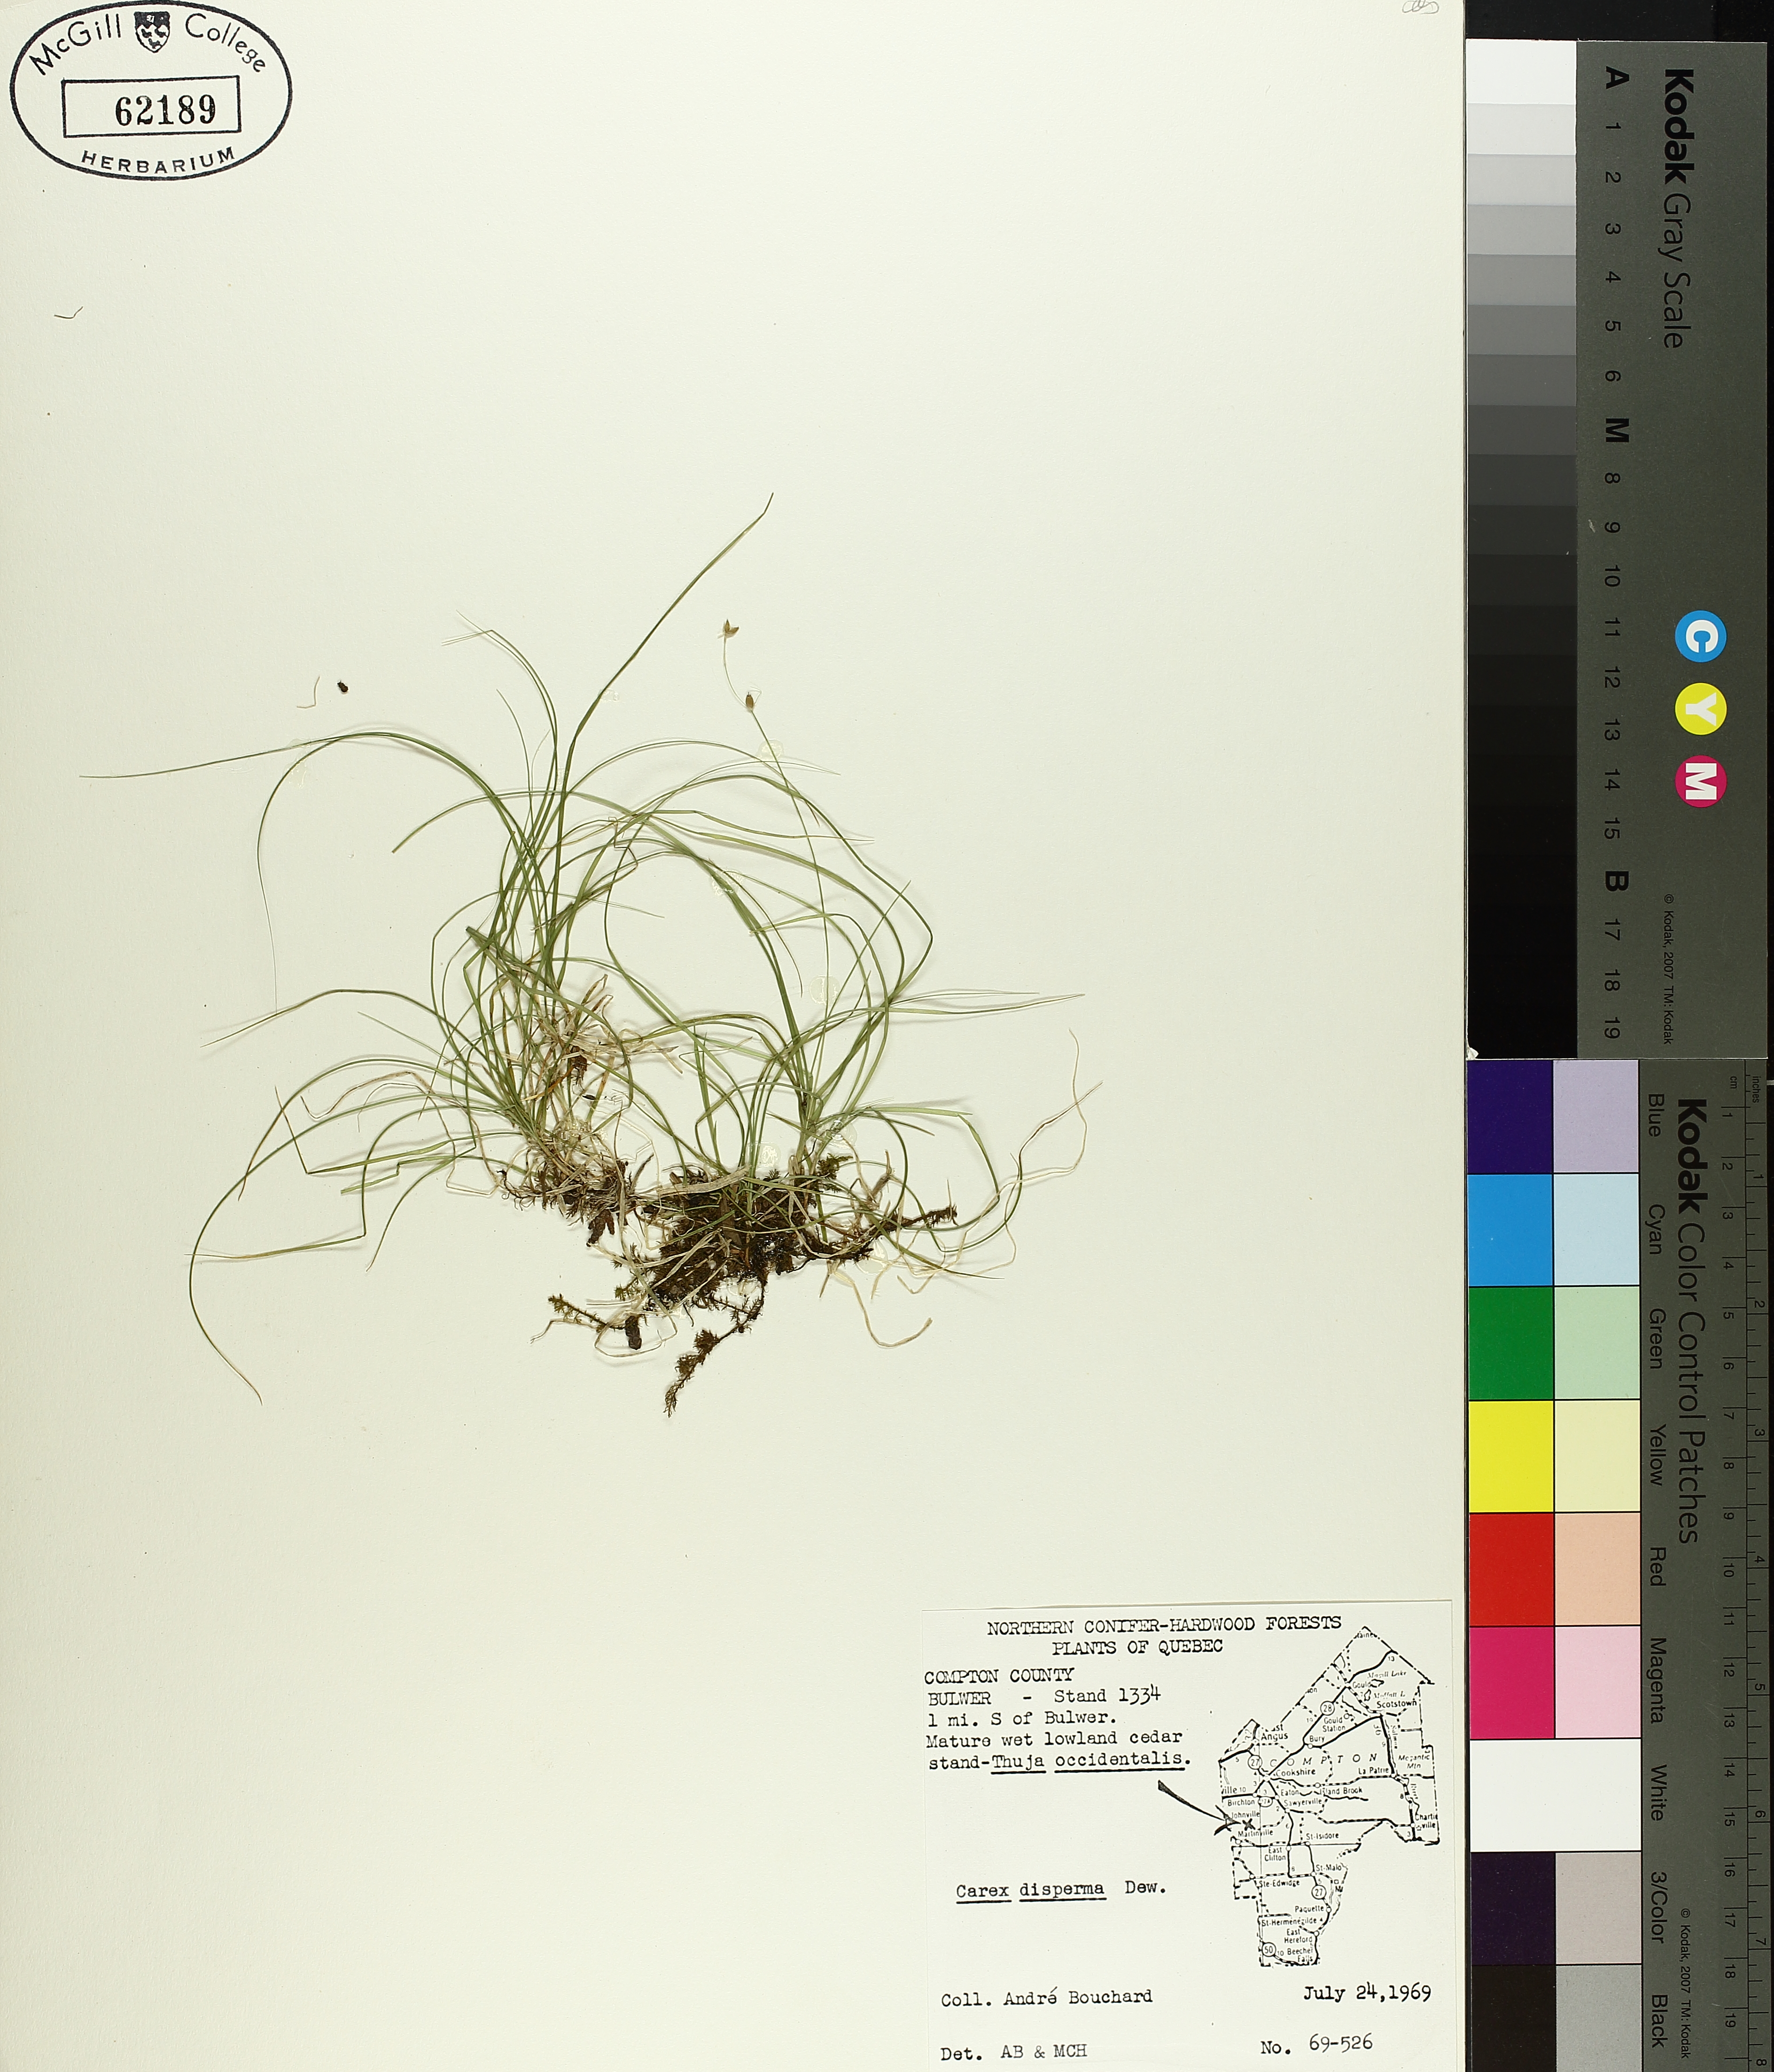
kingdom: Plantae
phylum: Tracheophyta
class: Liliopsida
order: Poales
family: Cyperaceae
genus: Carex
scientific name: Carex disperma
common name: Short-leaved sedge
